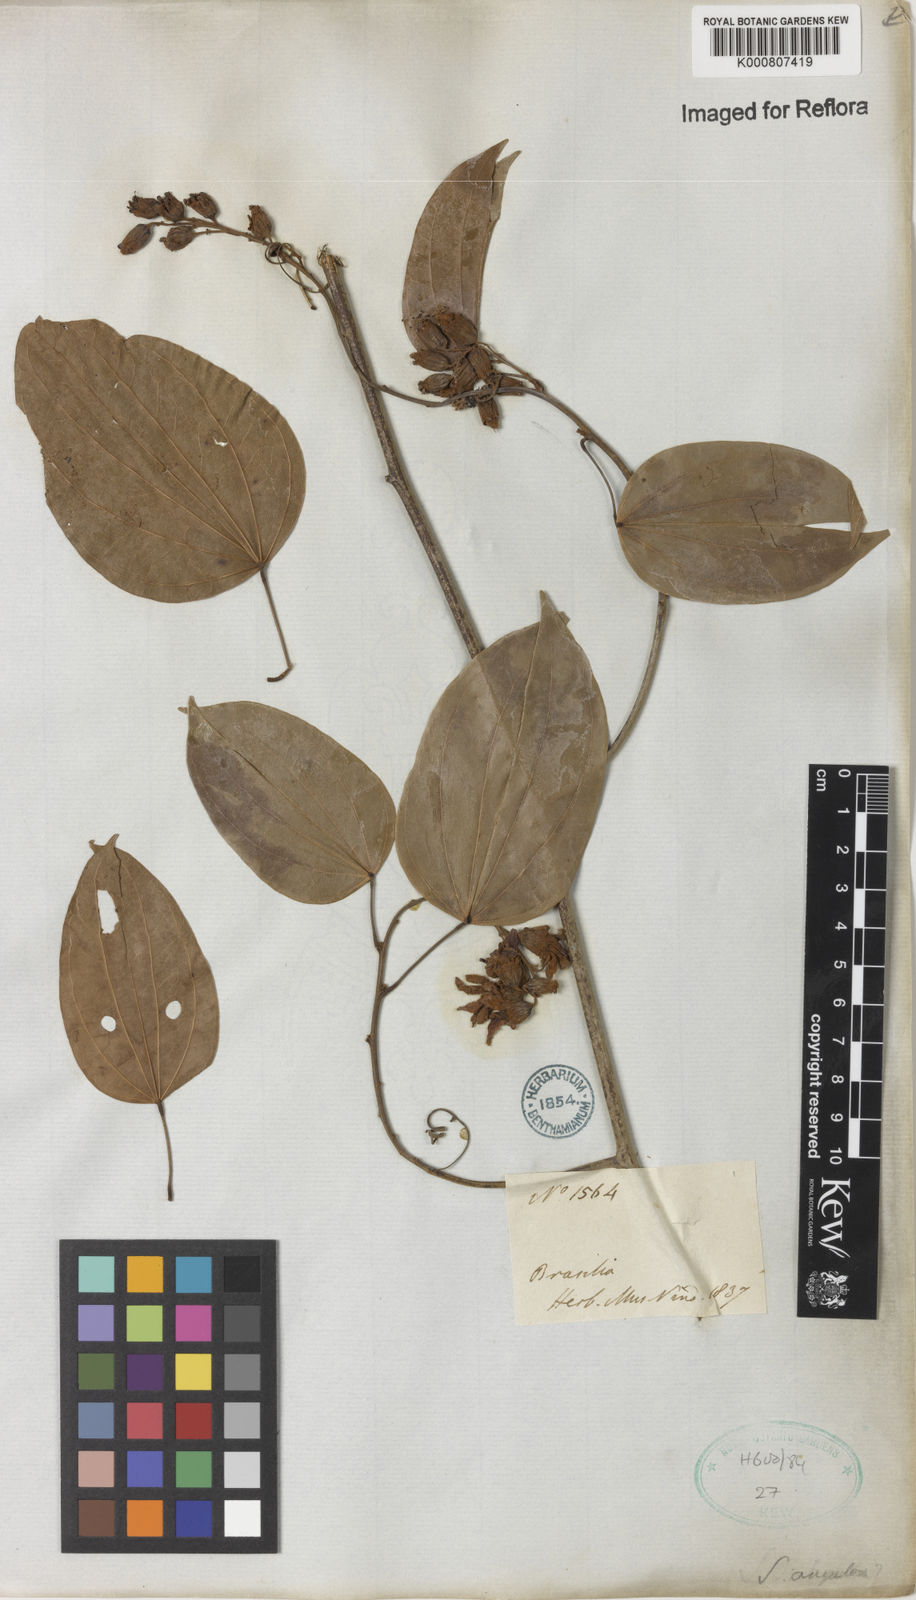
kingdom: Plantae
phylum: Tracheophyta
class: Magnoliopsida
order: Fabales
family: Fabaceae
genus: Schnella
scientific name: Schnella angulosa
